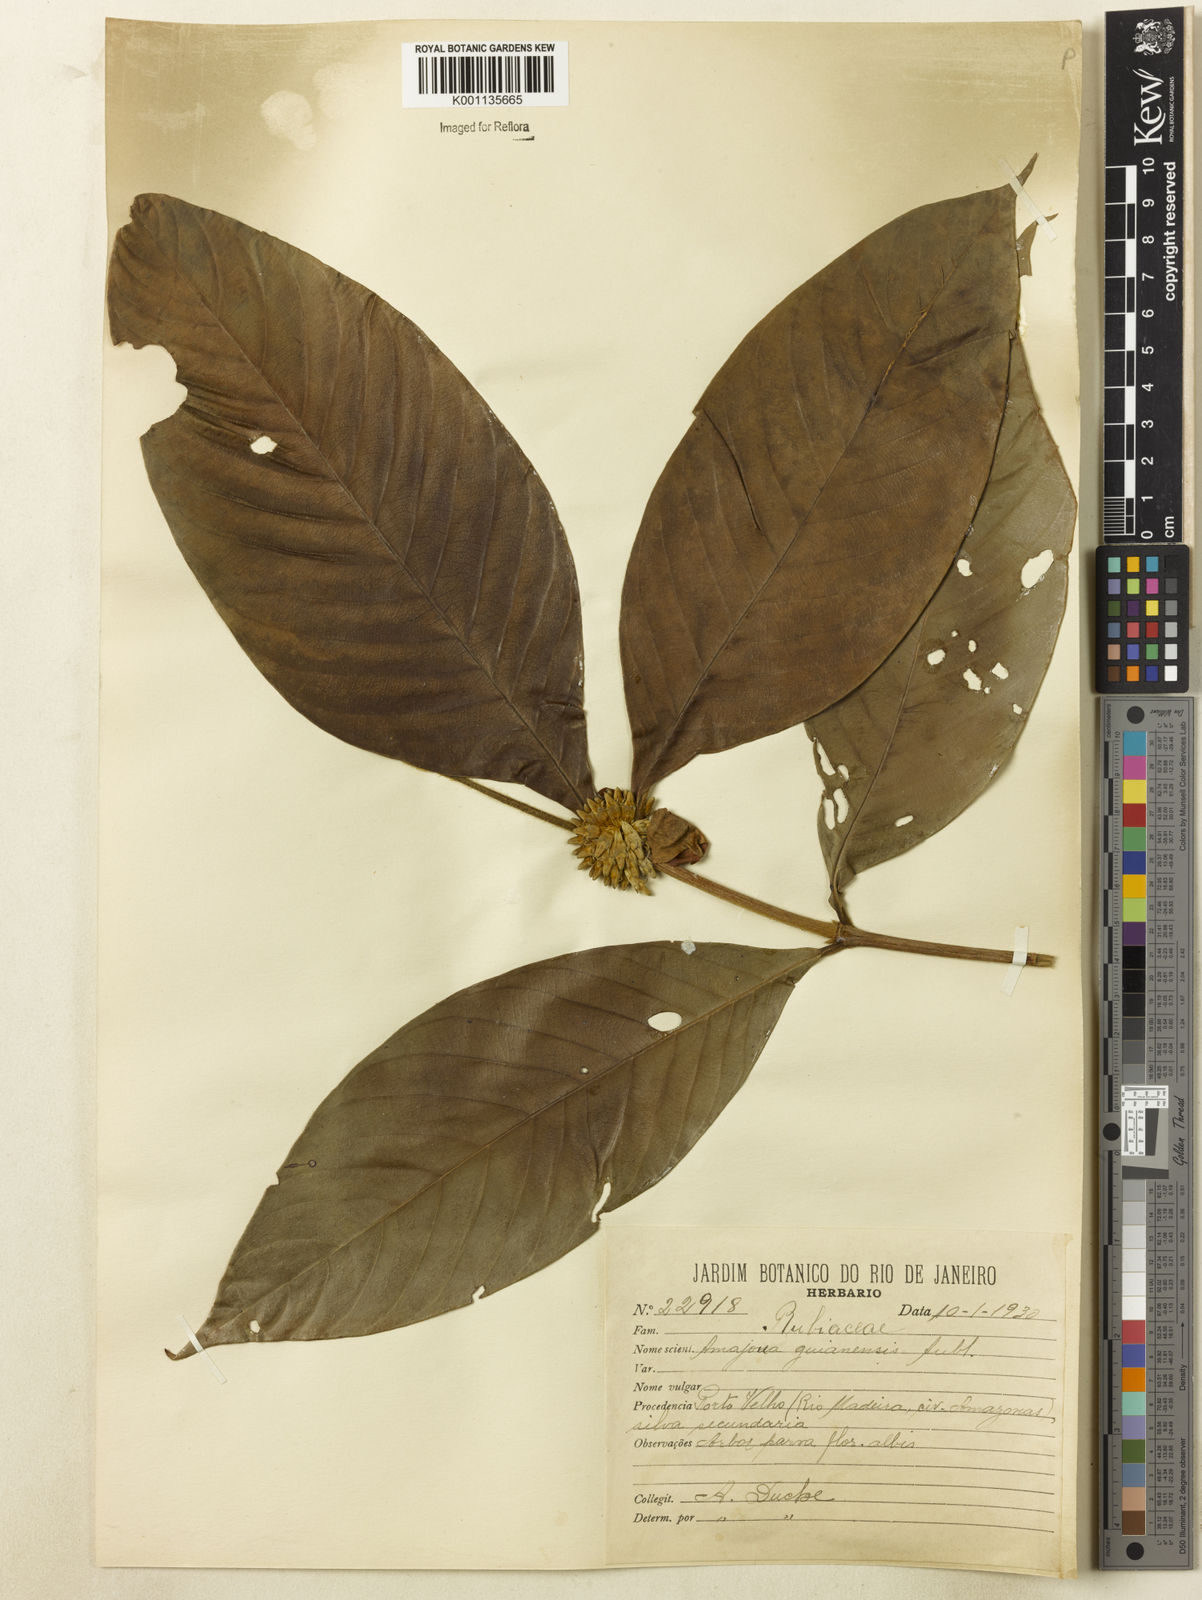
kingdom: Plantae
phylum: Tracheophyta
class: Magnoliopsida
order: Gentianales
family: Rubiaceae
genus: Amaioua
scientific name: Amaioua guianensis
